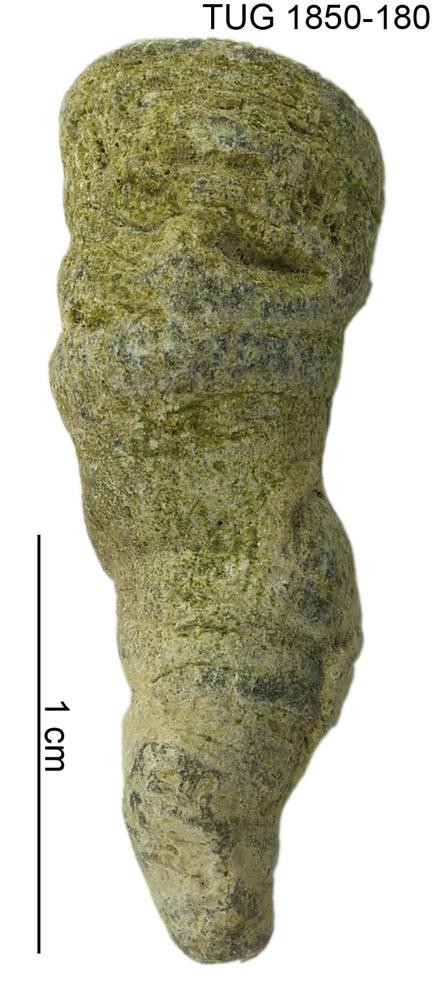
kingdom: Animalia
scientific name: Animalia
